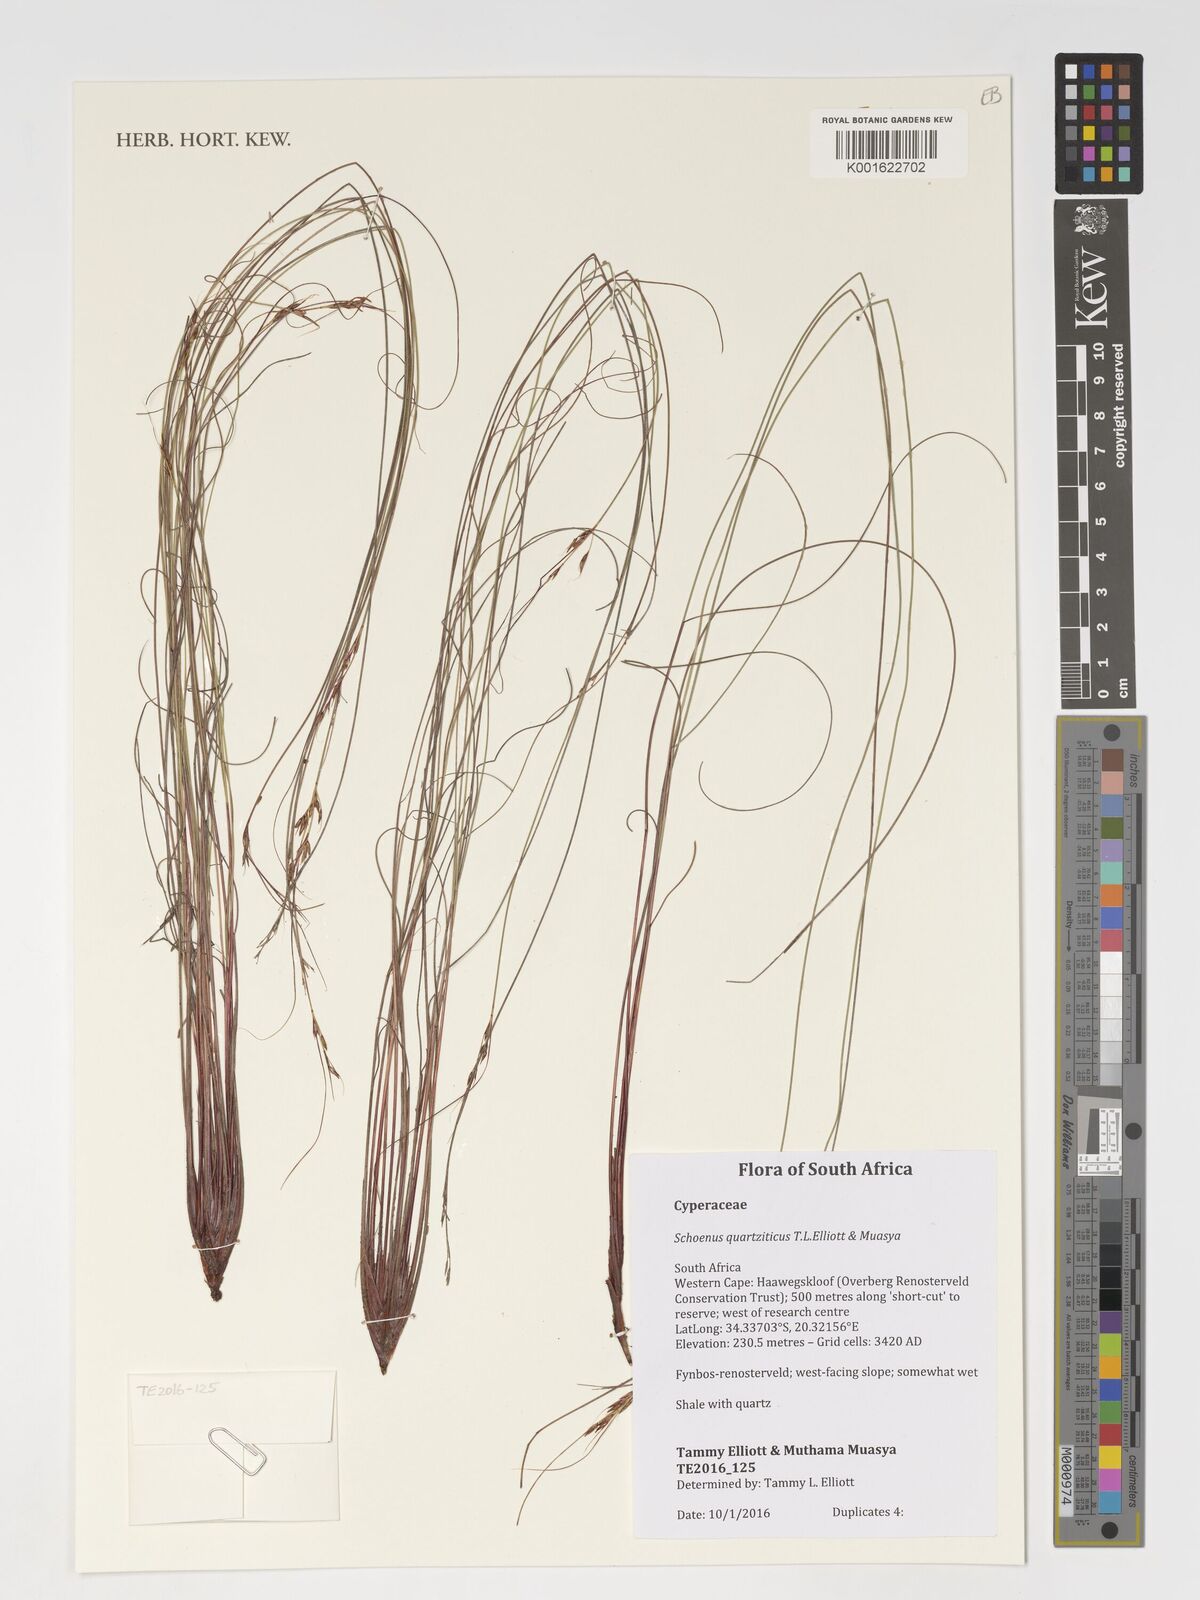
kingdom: Plantae
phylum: Tracheophyta
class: Liliopsida
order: Poales
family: Cyperaceae
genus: Schoenus
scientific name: Schoenus quartziticus
